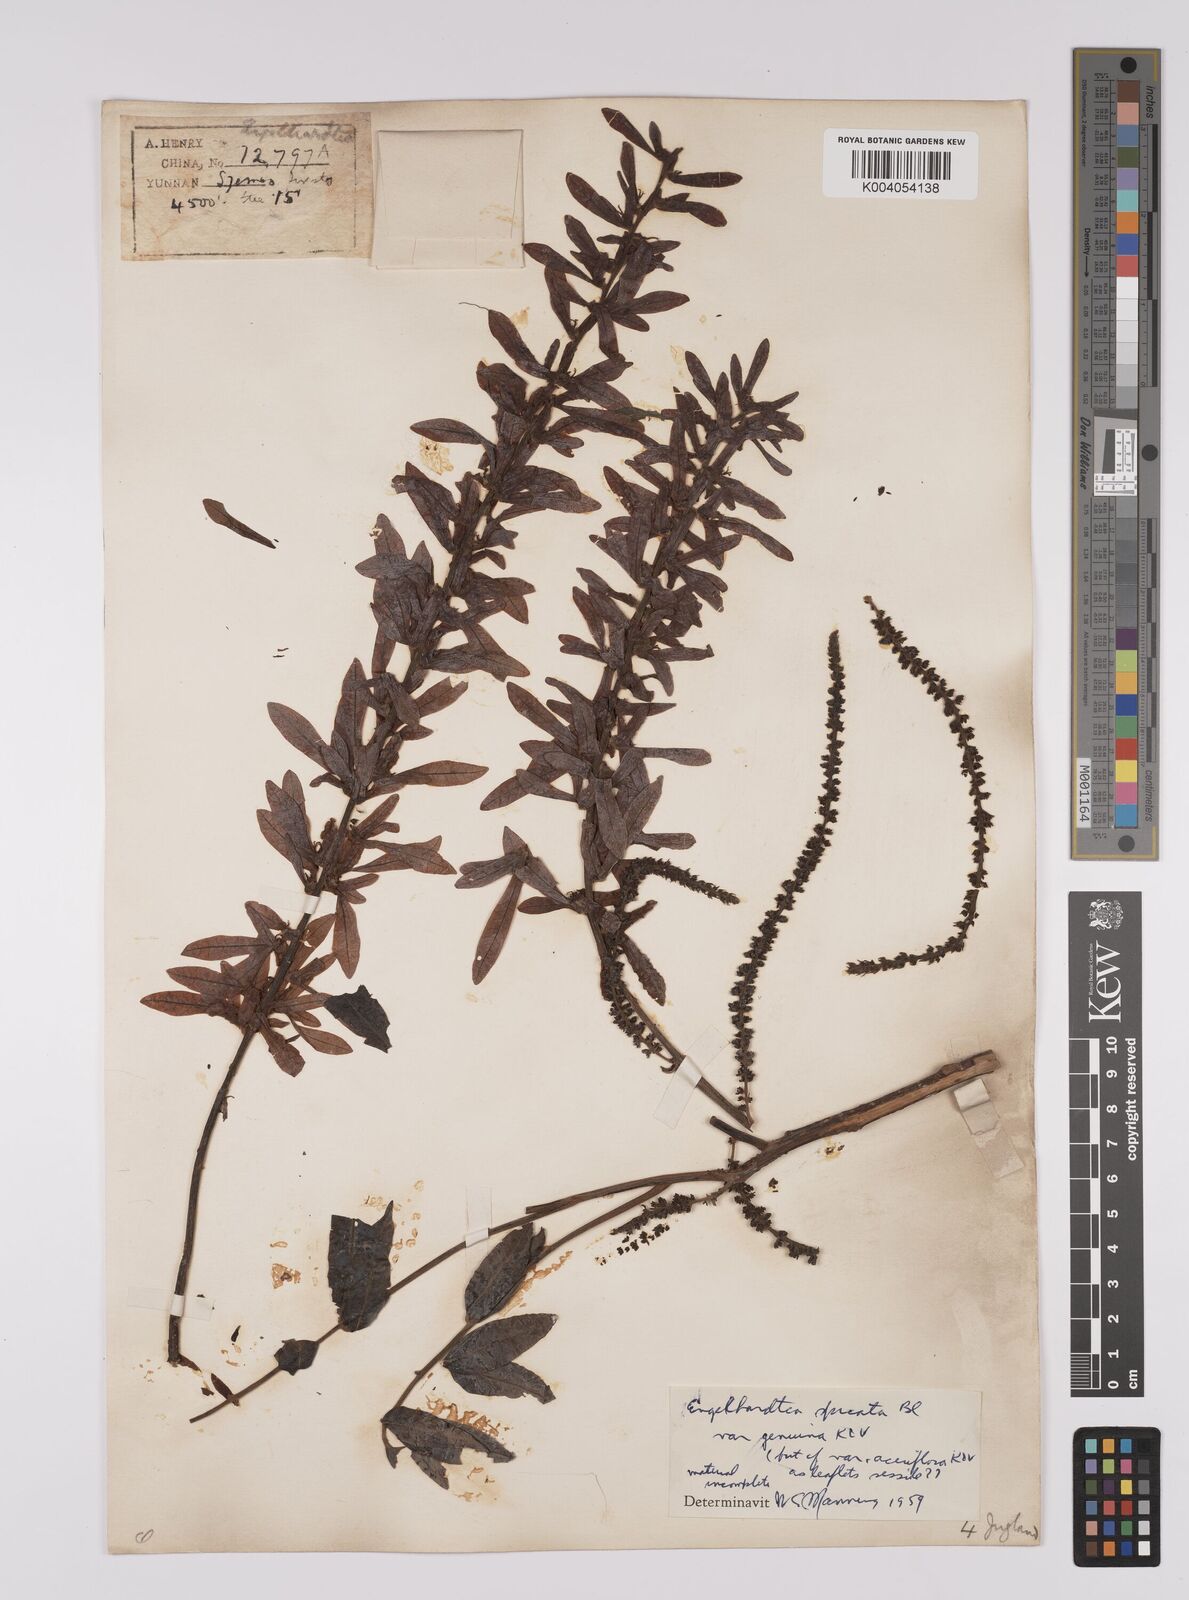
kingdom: Plantae
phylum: Tracheophyta
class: Magnoliopsida
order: Fagales
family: Juglandaceae
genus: Engelhardia
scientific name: Engelhardia spicata
